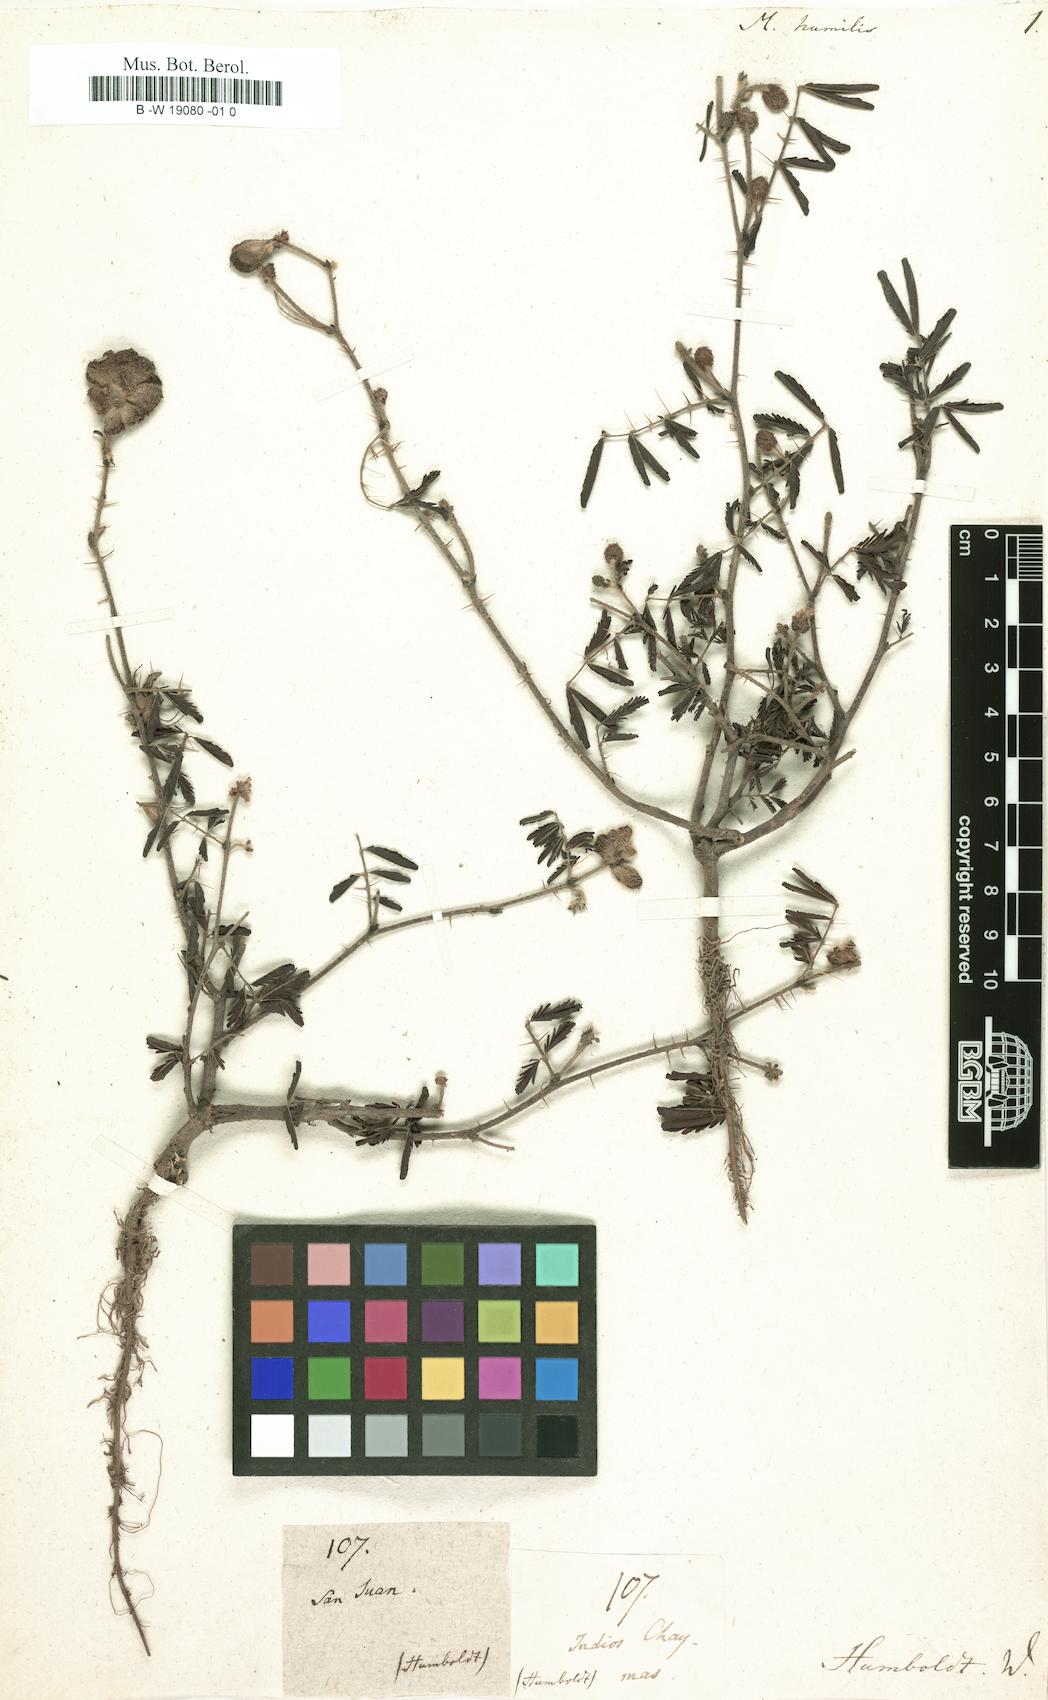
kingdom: Plantae
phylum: Tracheophyta
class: Magnoliopsida
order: Fabales
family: Fabaceae
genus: Mimosa
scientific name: Mimosa dormiens
